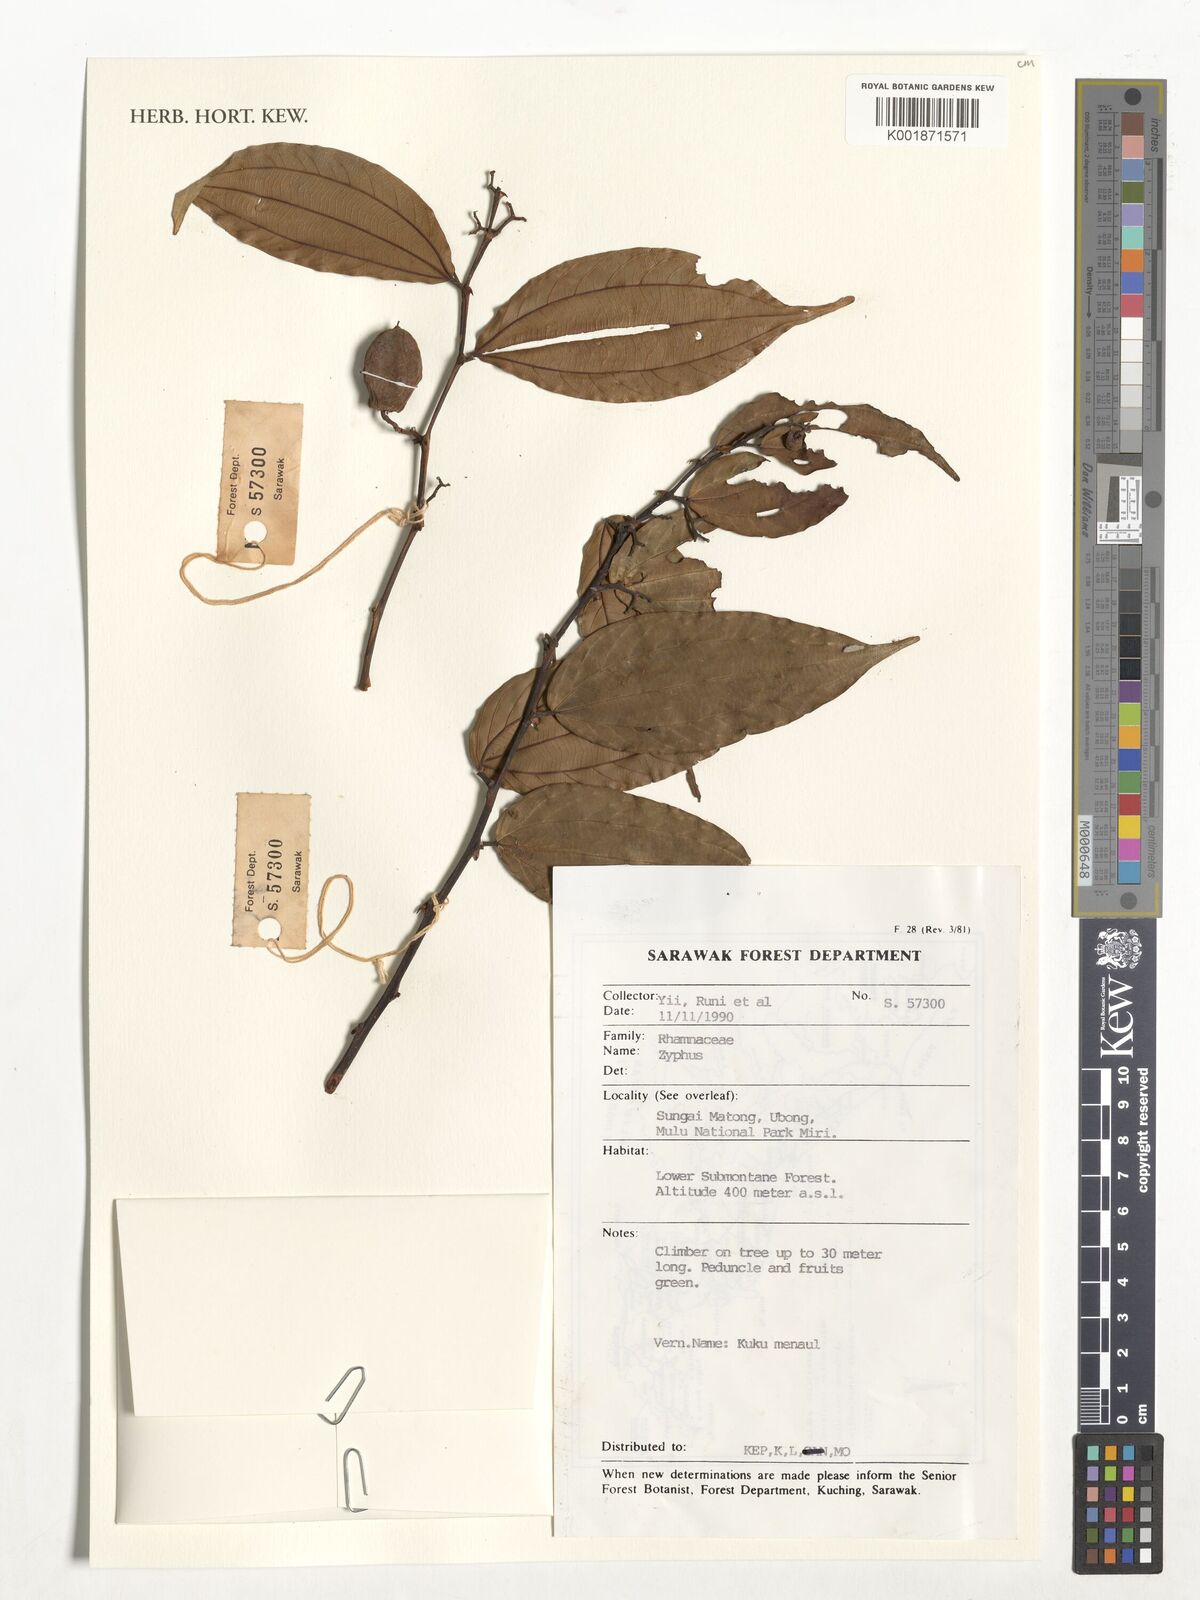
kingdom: Plantae
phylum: Tracheophyta
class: Magnoliopsida
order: Rosales
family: Rhamnaceae
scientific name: Rhamnaceae
